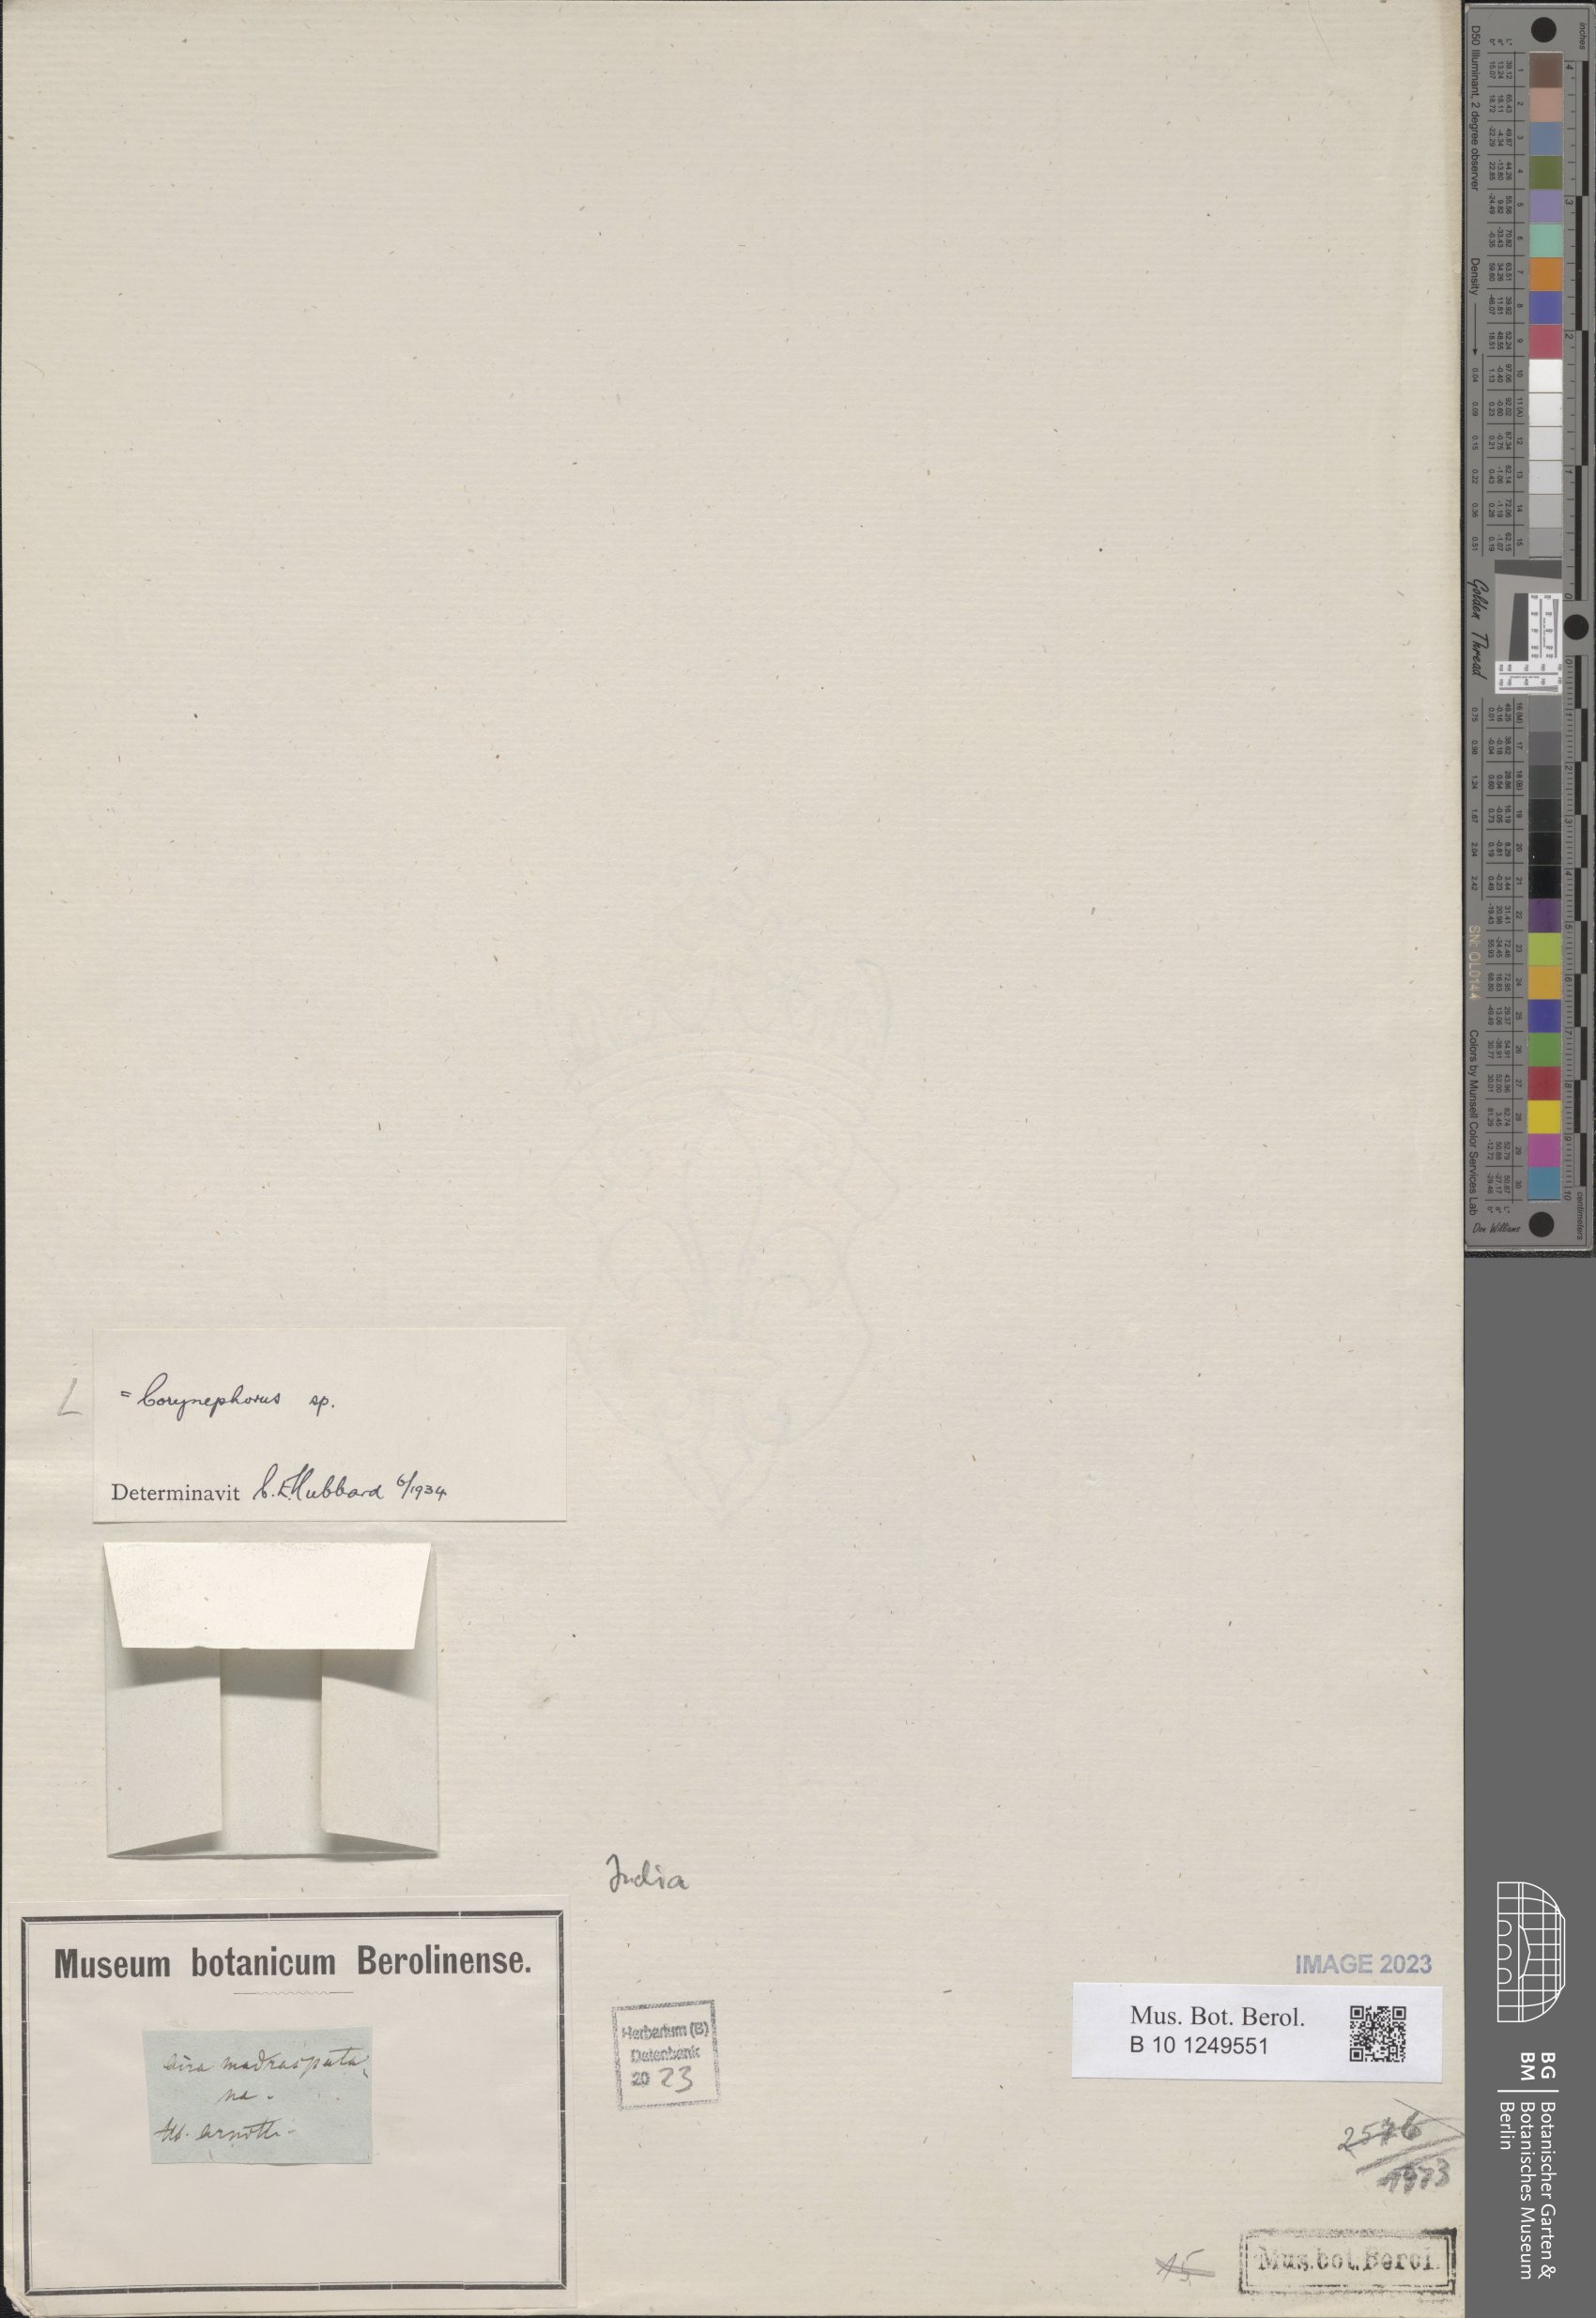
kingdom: Plantae
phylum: Tracheophyta
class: Liliopsida
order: Poales
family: Poaceae
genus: Corynephorus
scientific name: Corynephorus
